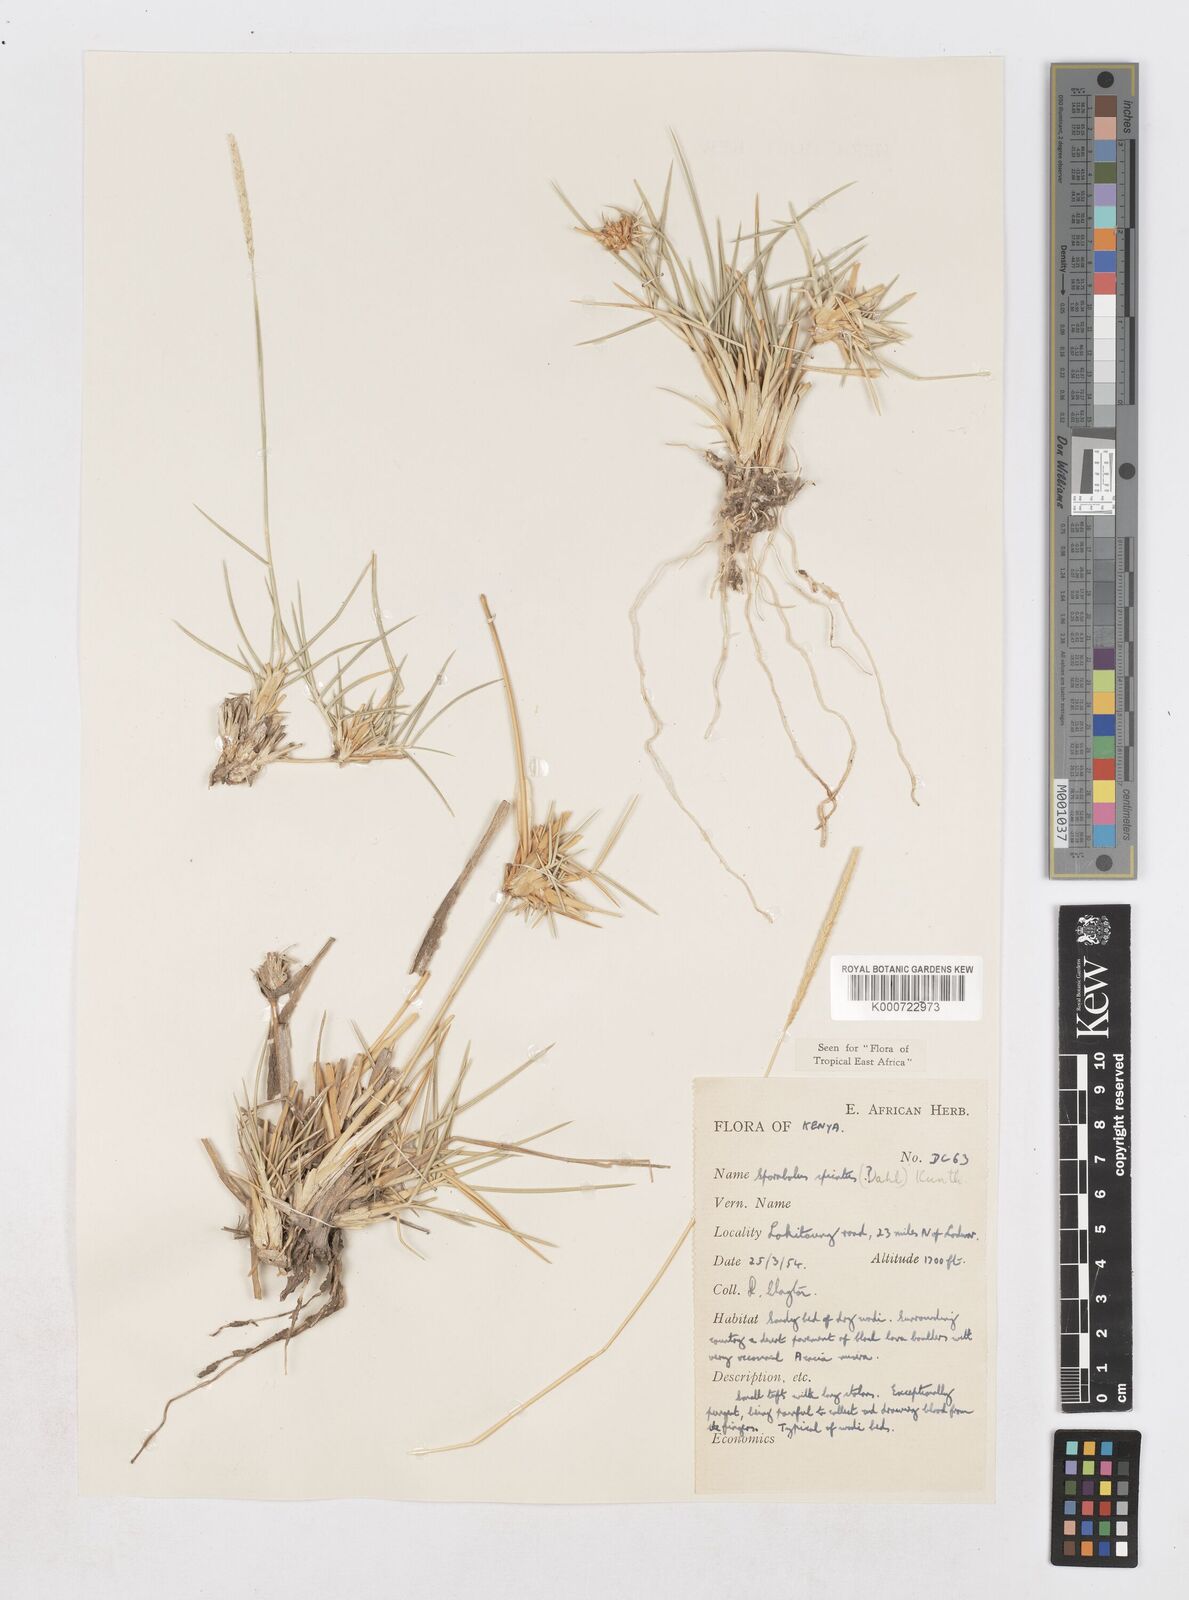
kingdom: Plantae
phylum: Tracheophyta
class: Liliopsida
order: Poales
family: Poaceae
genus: Sporobolus
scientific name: Sporobolus spicatus
